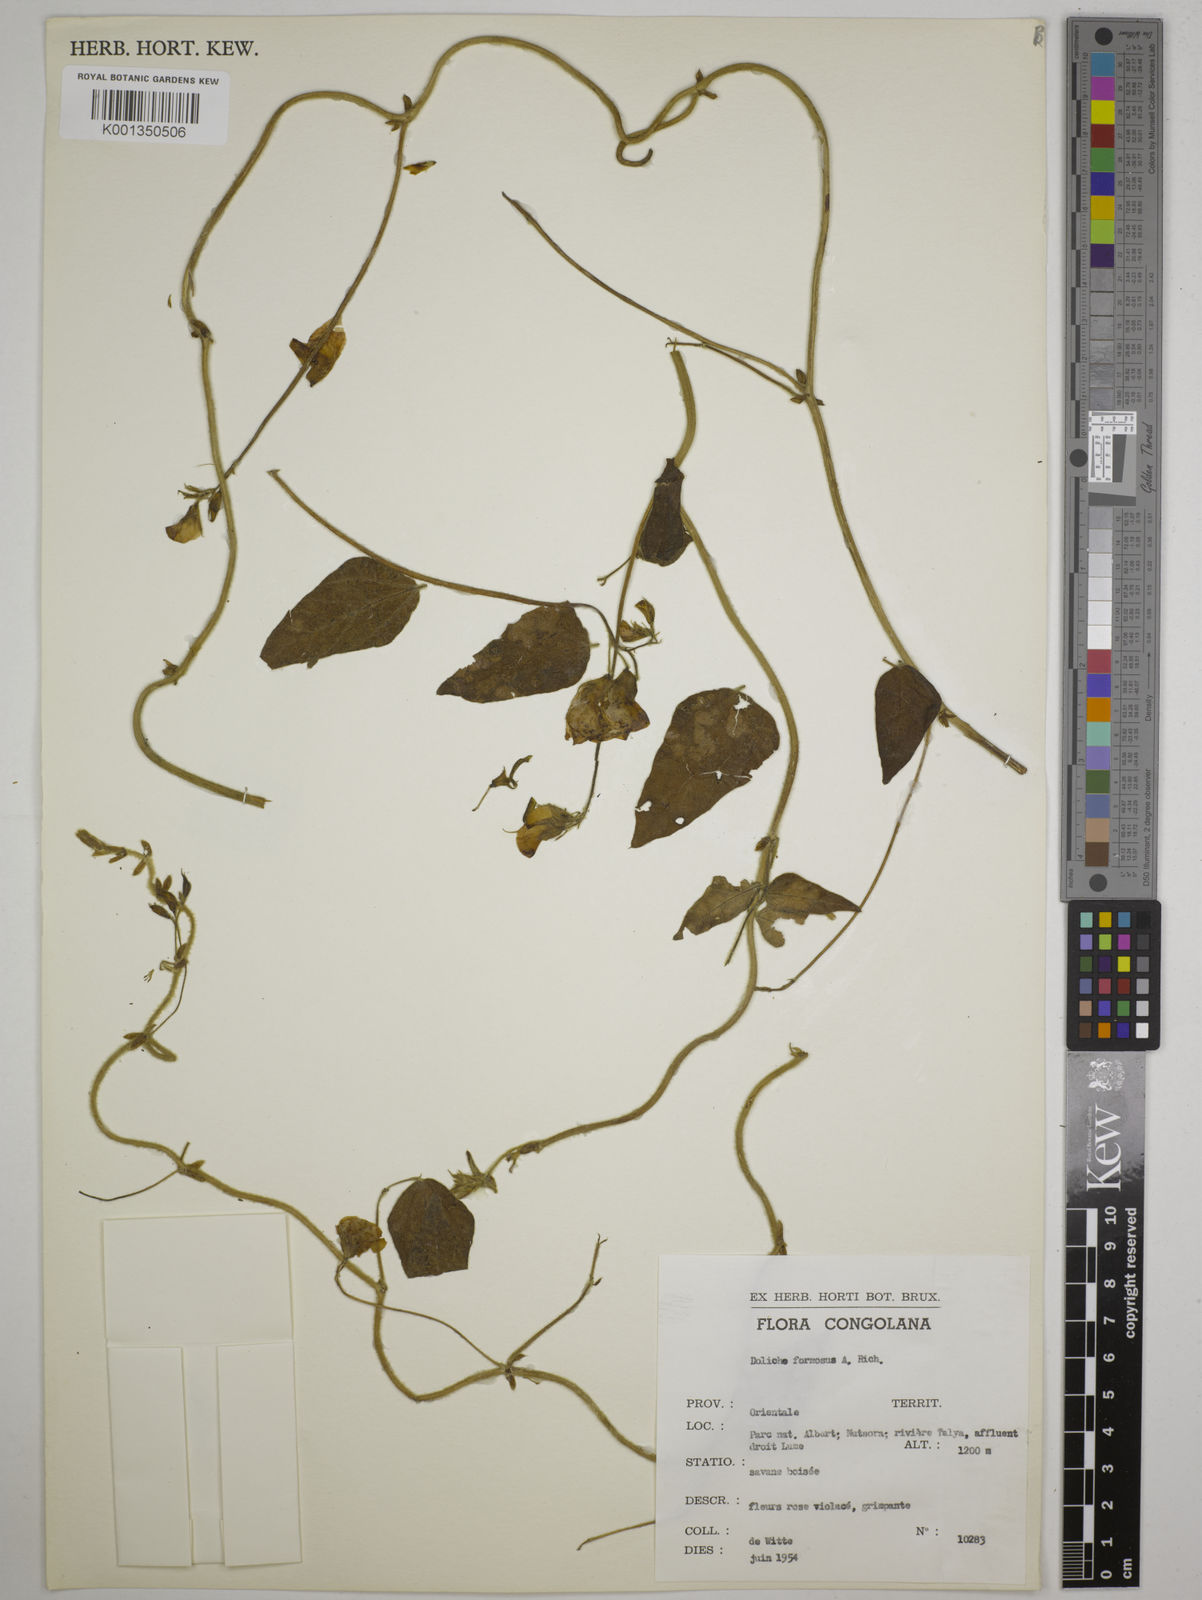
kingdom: Plantae
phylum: Tracheophyta
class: Magnoliopsida
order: Fabales
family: Fabaceae
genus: Dolichos
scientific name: Dolichos sericeus
